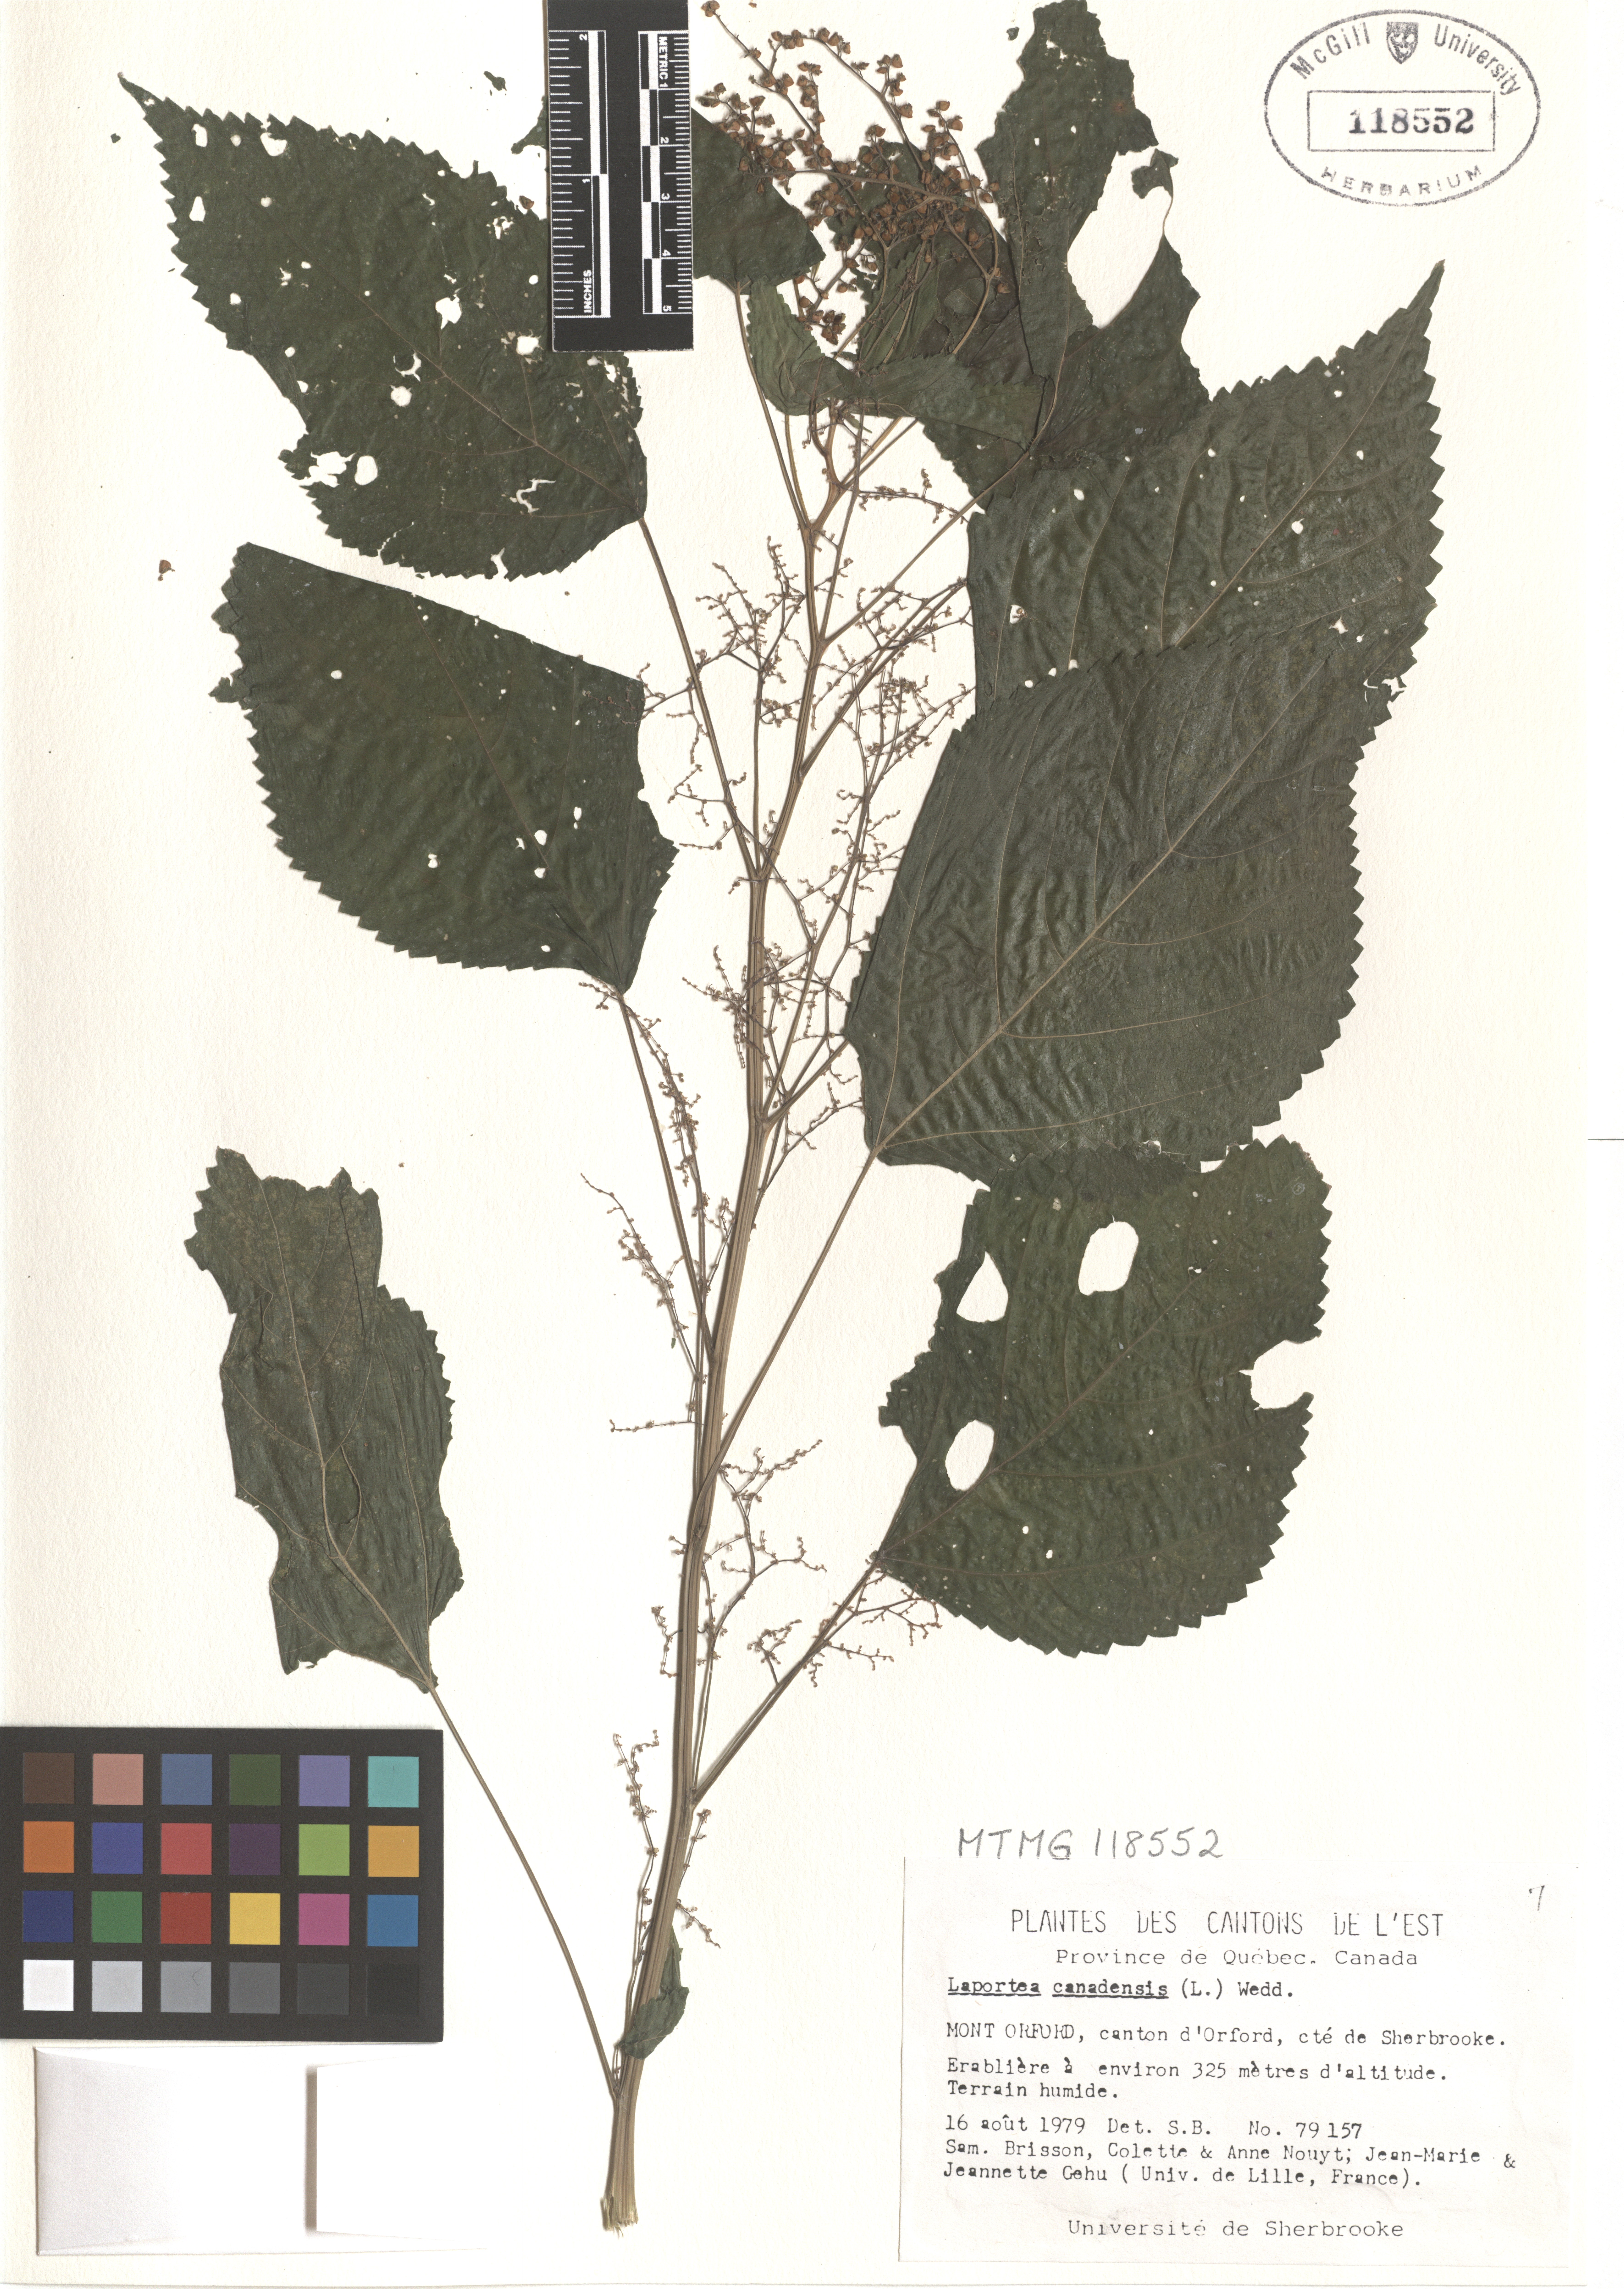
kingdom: Plantae
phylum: Tracheophyta
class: Magnoliopsida
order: Rosales
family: Urticaceae
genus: Laportea
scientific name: Laportea canadensis
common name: Canada nettle
